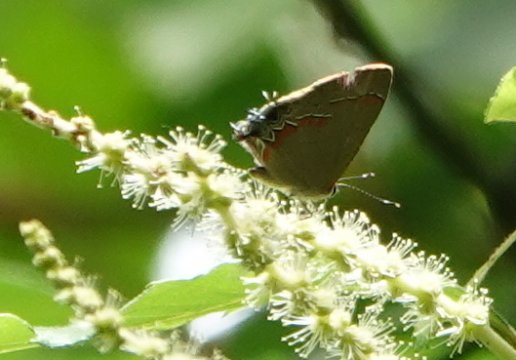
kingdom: Animalia
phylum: Arthropoda
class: Insecta
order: Lepidoptera
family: Lycaenidae
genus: Calycopis
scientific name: Calycopis cecrops
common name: Red-banded Hairstreak
